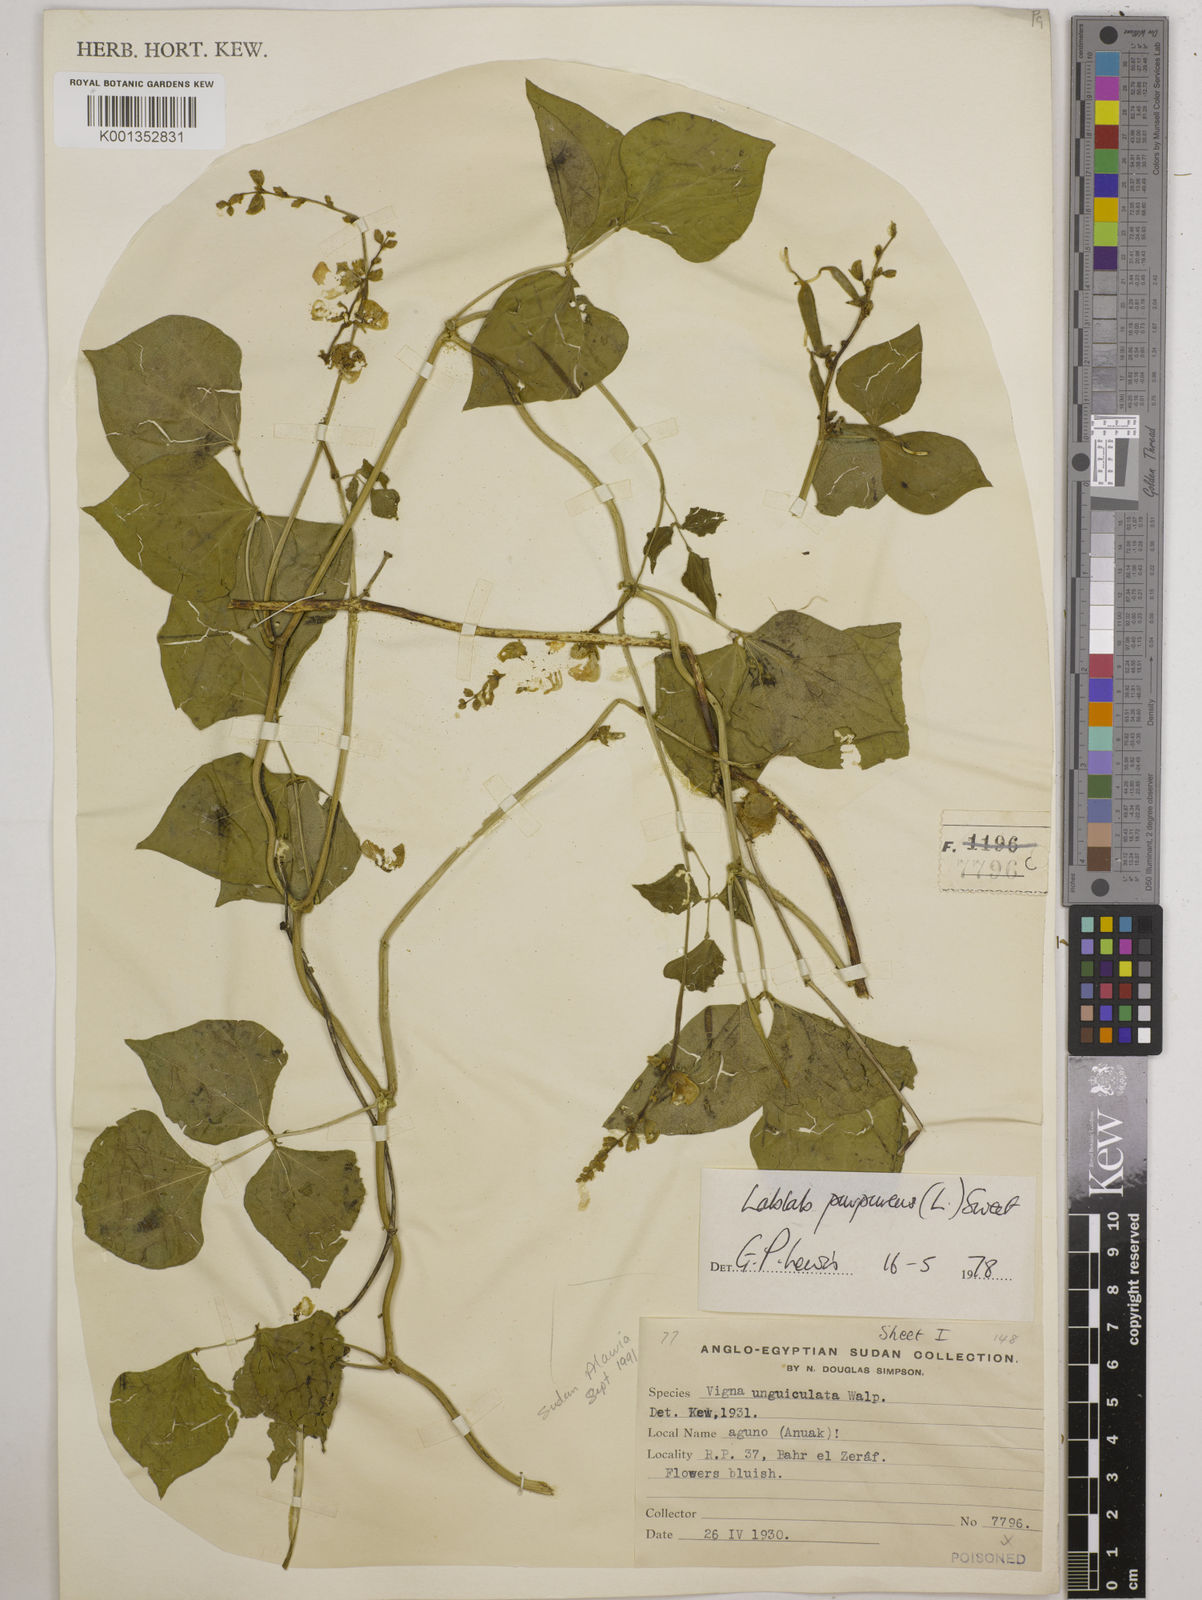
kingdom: Plantae
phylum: Tracheophyta
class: Magnoliopsida
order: Fabales
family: Fabaceae
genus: Lablab
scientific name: Lablab purpureus
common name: Lablab-bean
